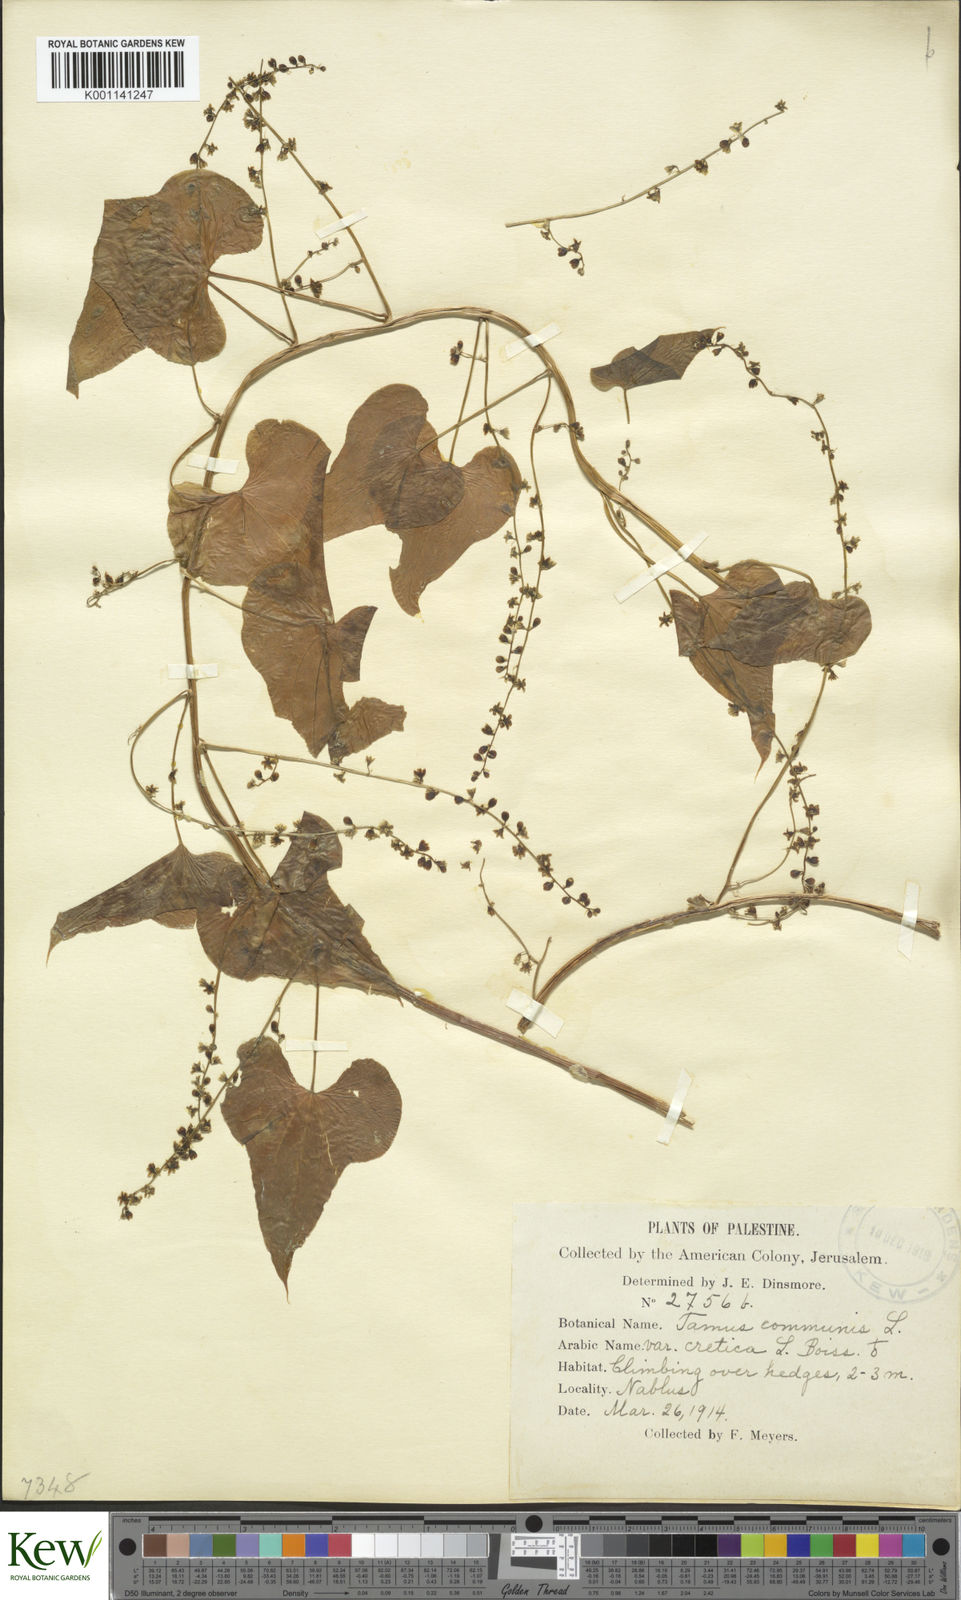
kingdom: Plantae
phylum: Tracheophyta
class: Liliopsida
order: Dioscoreales
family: Dioscoreaceae
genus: Dioscorea
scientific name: Dioscorea communis
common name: Black-bindweed
